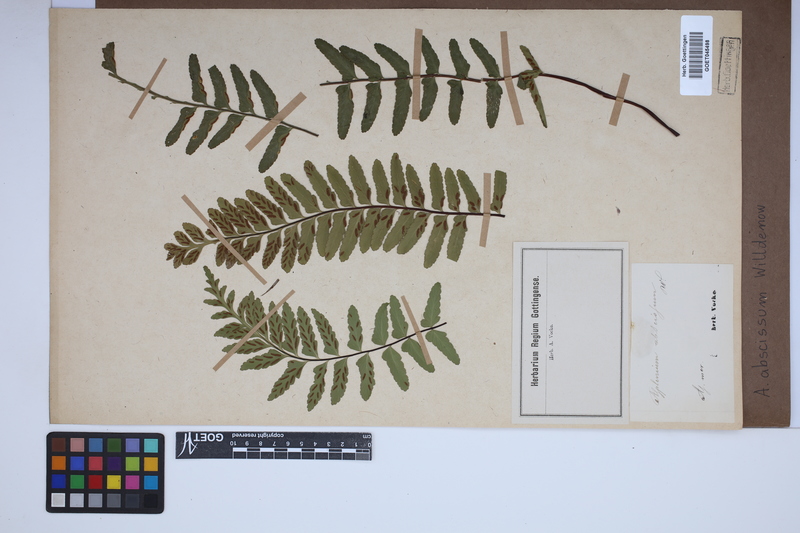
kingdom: Plantae
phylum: Tracheophyta
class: Polypodiopsida
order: Polypodiales
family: Aspleniaceae
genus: Asplenium
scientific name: Asplenium abscissum
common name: Cutleaf spleenwort
